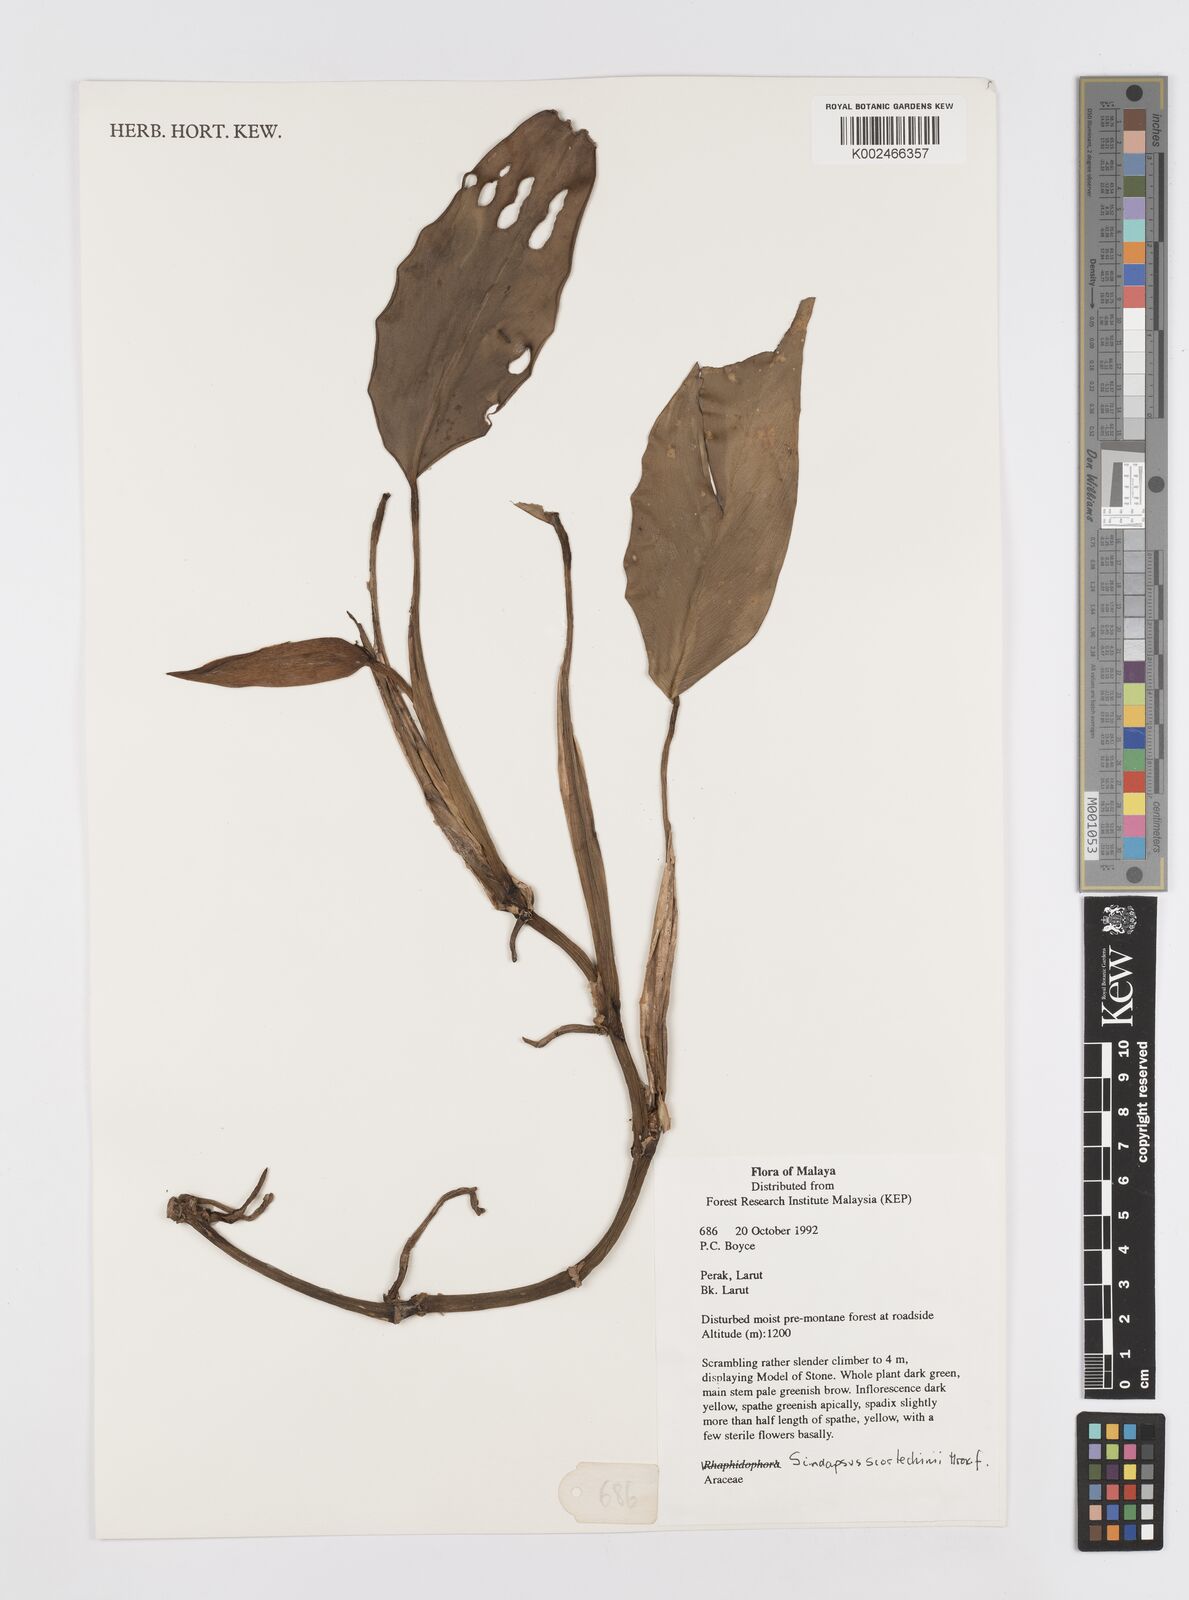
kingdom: Plantae
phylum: Tracheophyta
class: Liliopsida
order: Alismatales
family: Araceae
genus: Scindapsus
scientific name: Scindapsus scortechinii
